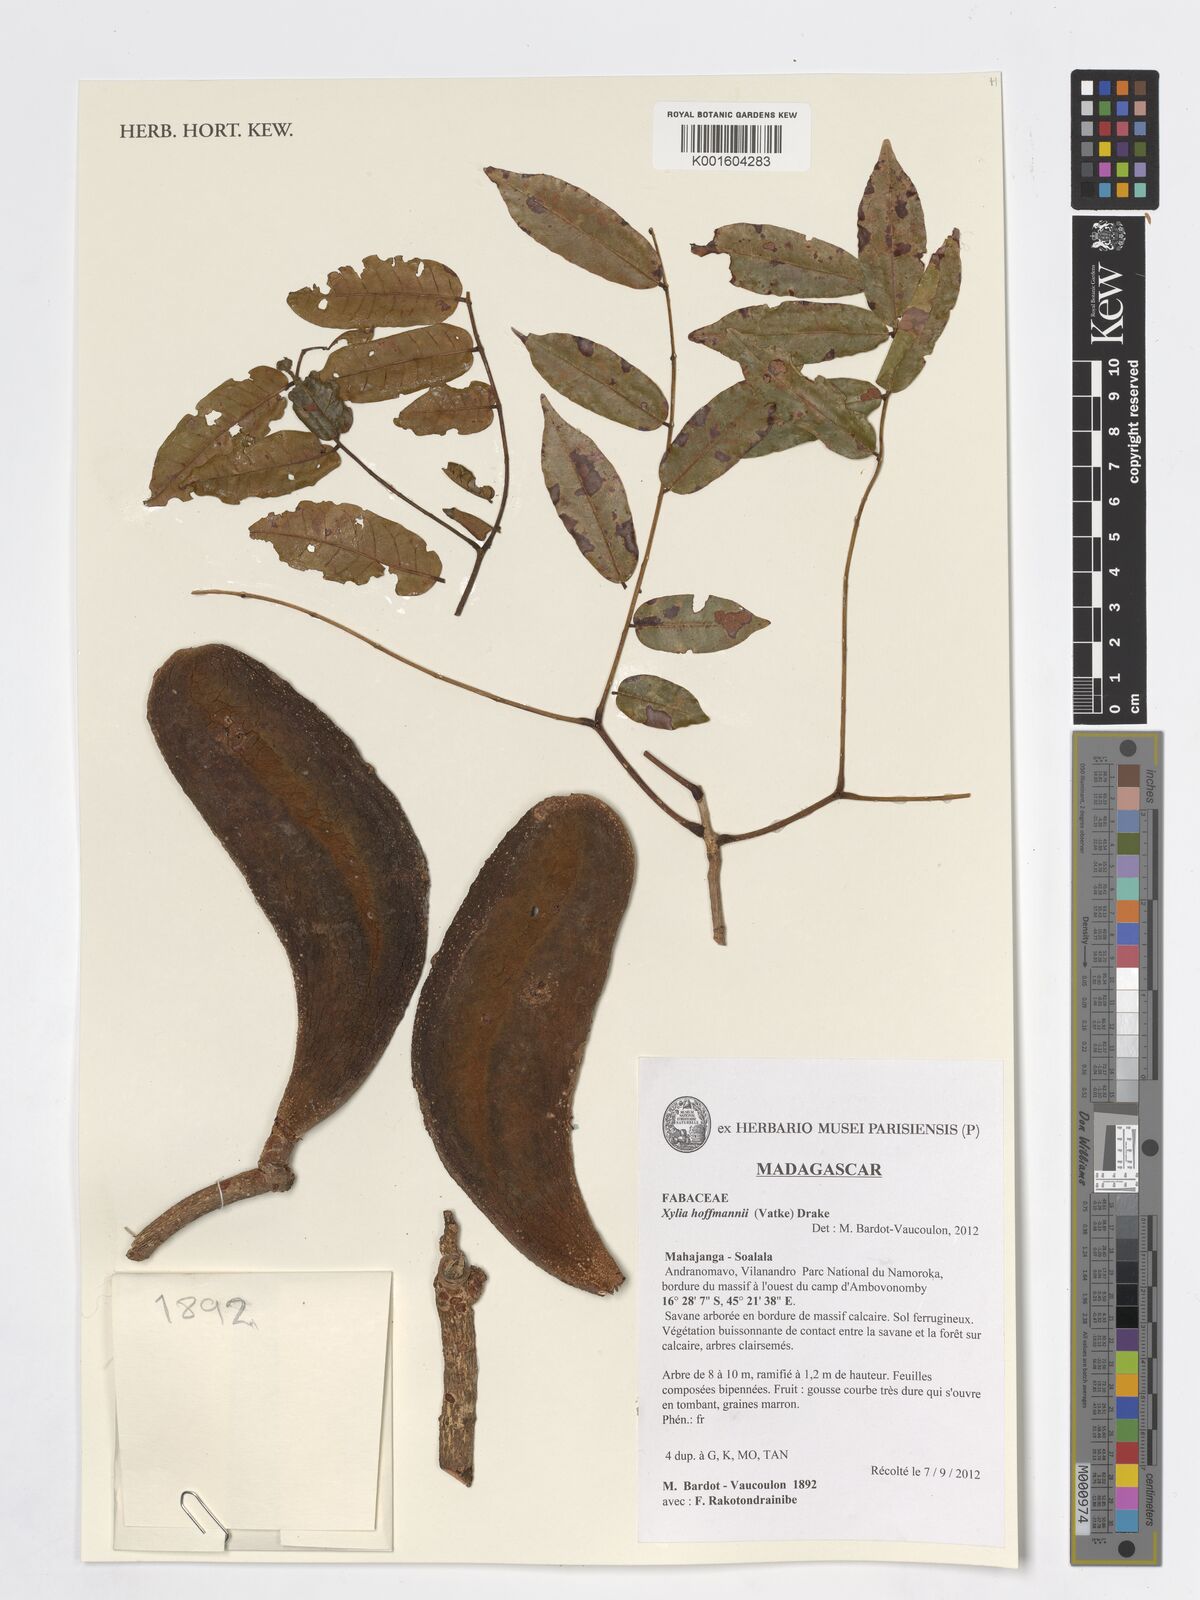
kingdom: Plantae
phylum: Tracheophyta
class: Magnoliopsida
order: Fabales
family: Fabaceae
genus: Xylia
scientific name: Xylia hoffmannii
